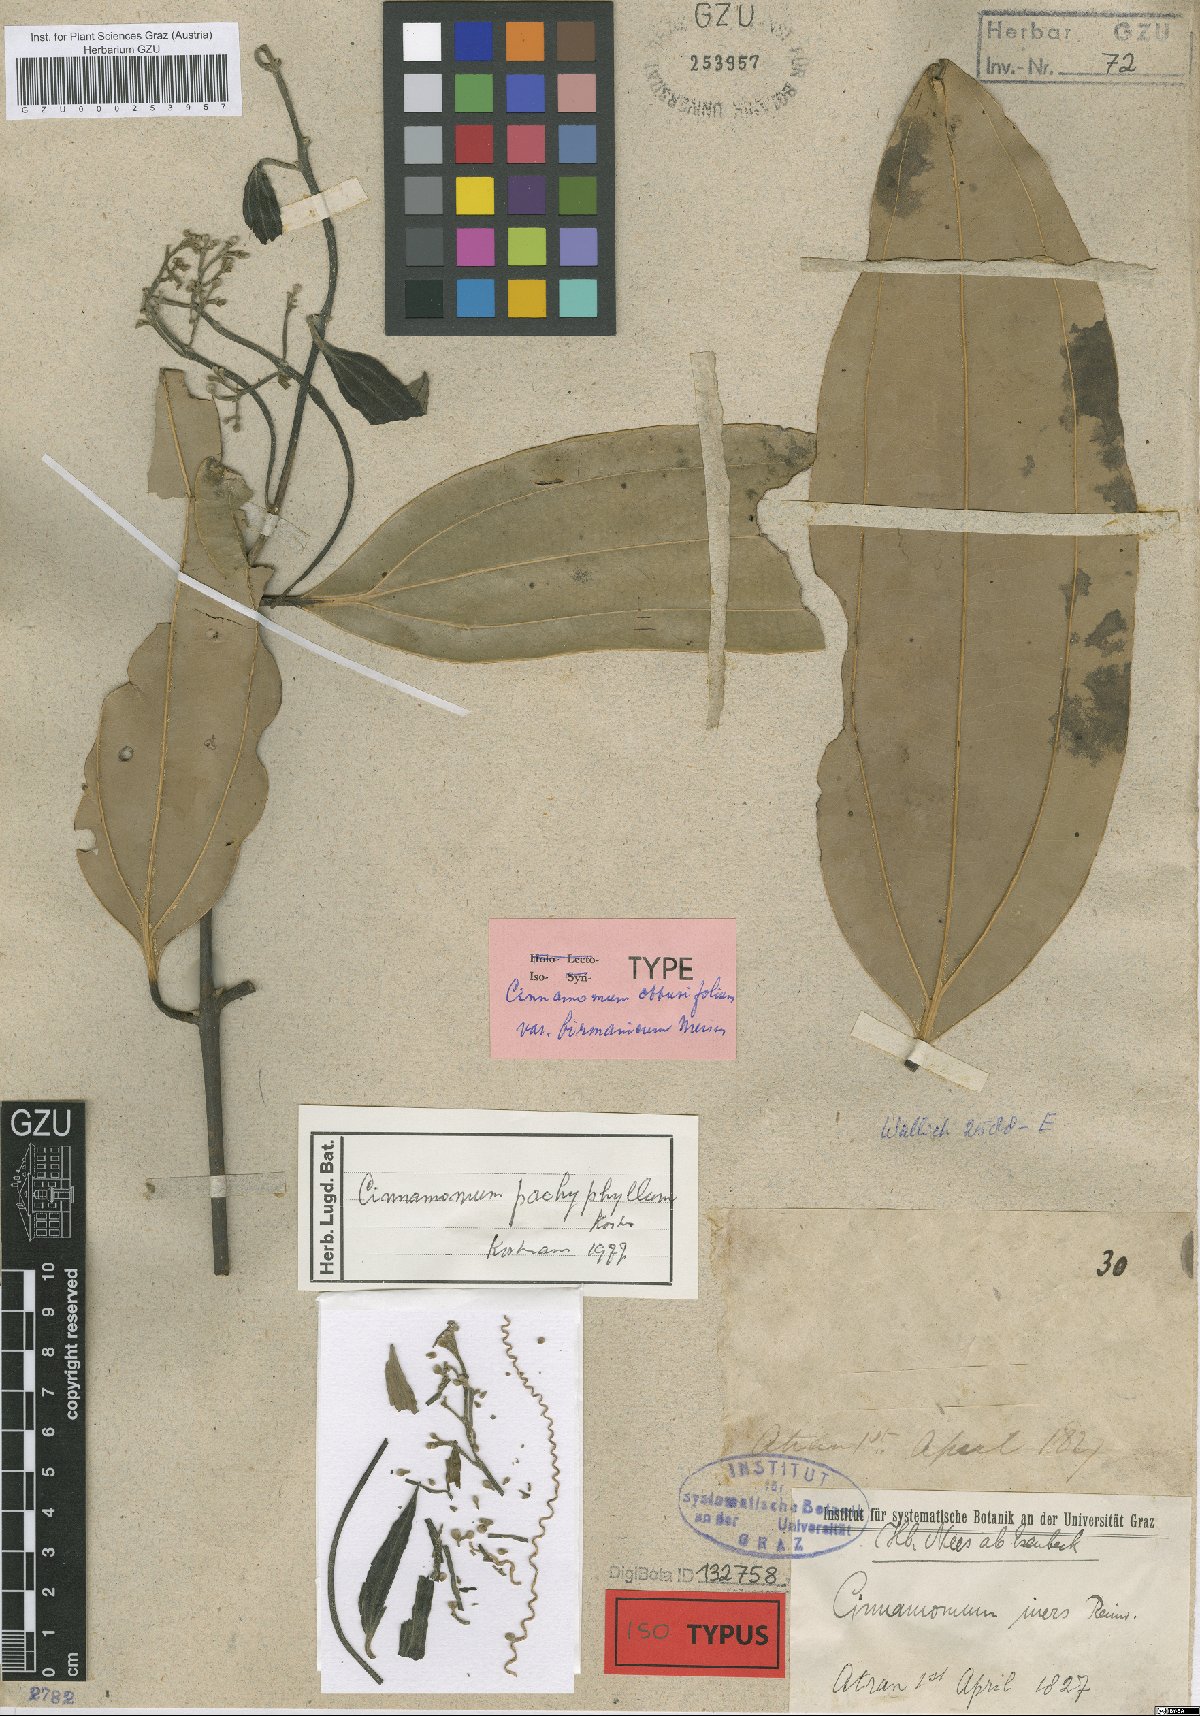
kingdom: Plantae
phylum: Tracheophyta
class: Magnoliopsida
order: Laurales
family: Lauraceae
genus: Cinnamomum
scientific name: Cinnamomum pachyphyllum
